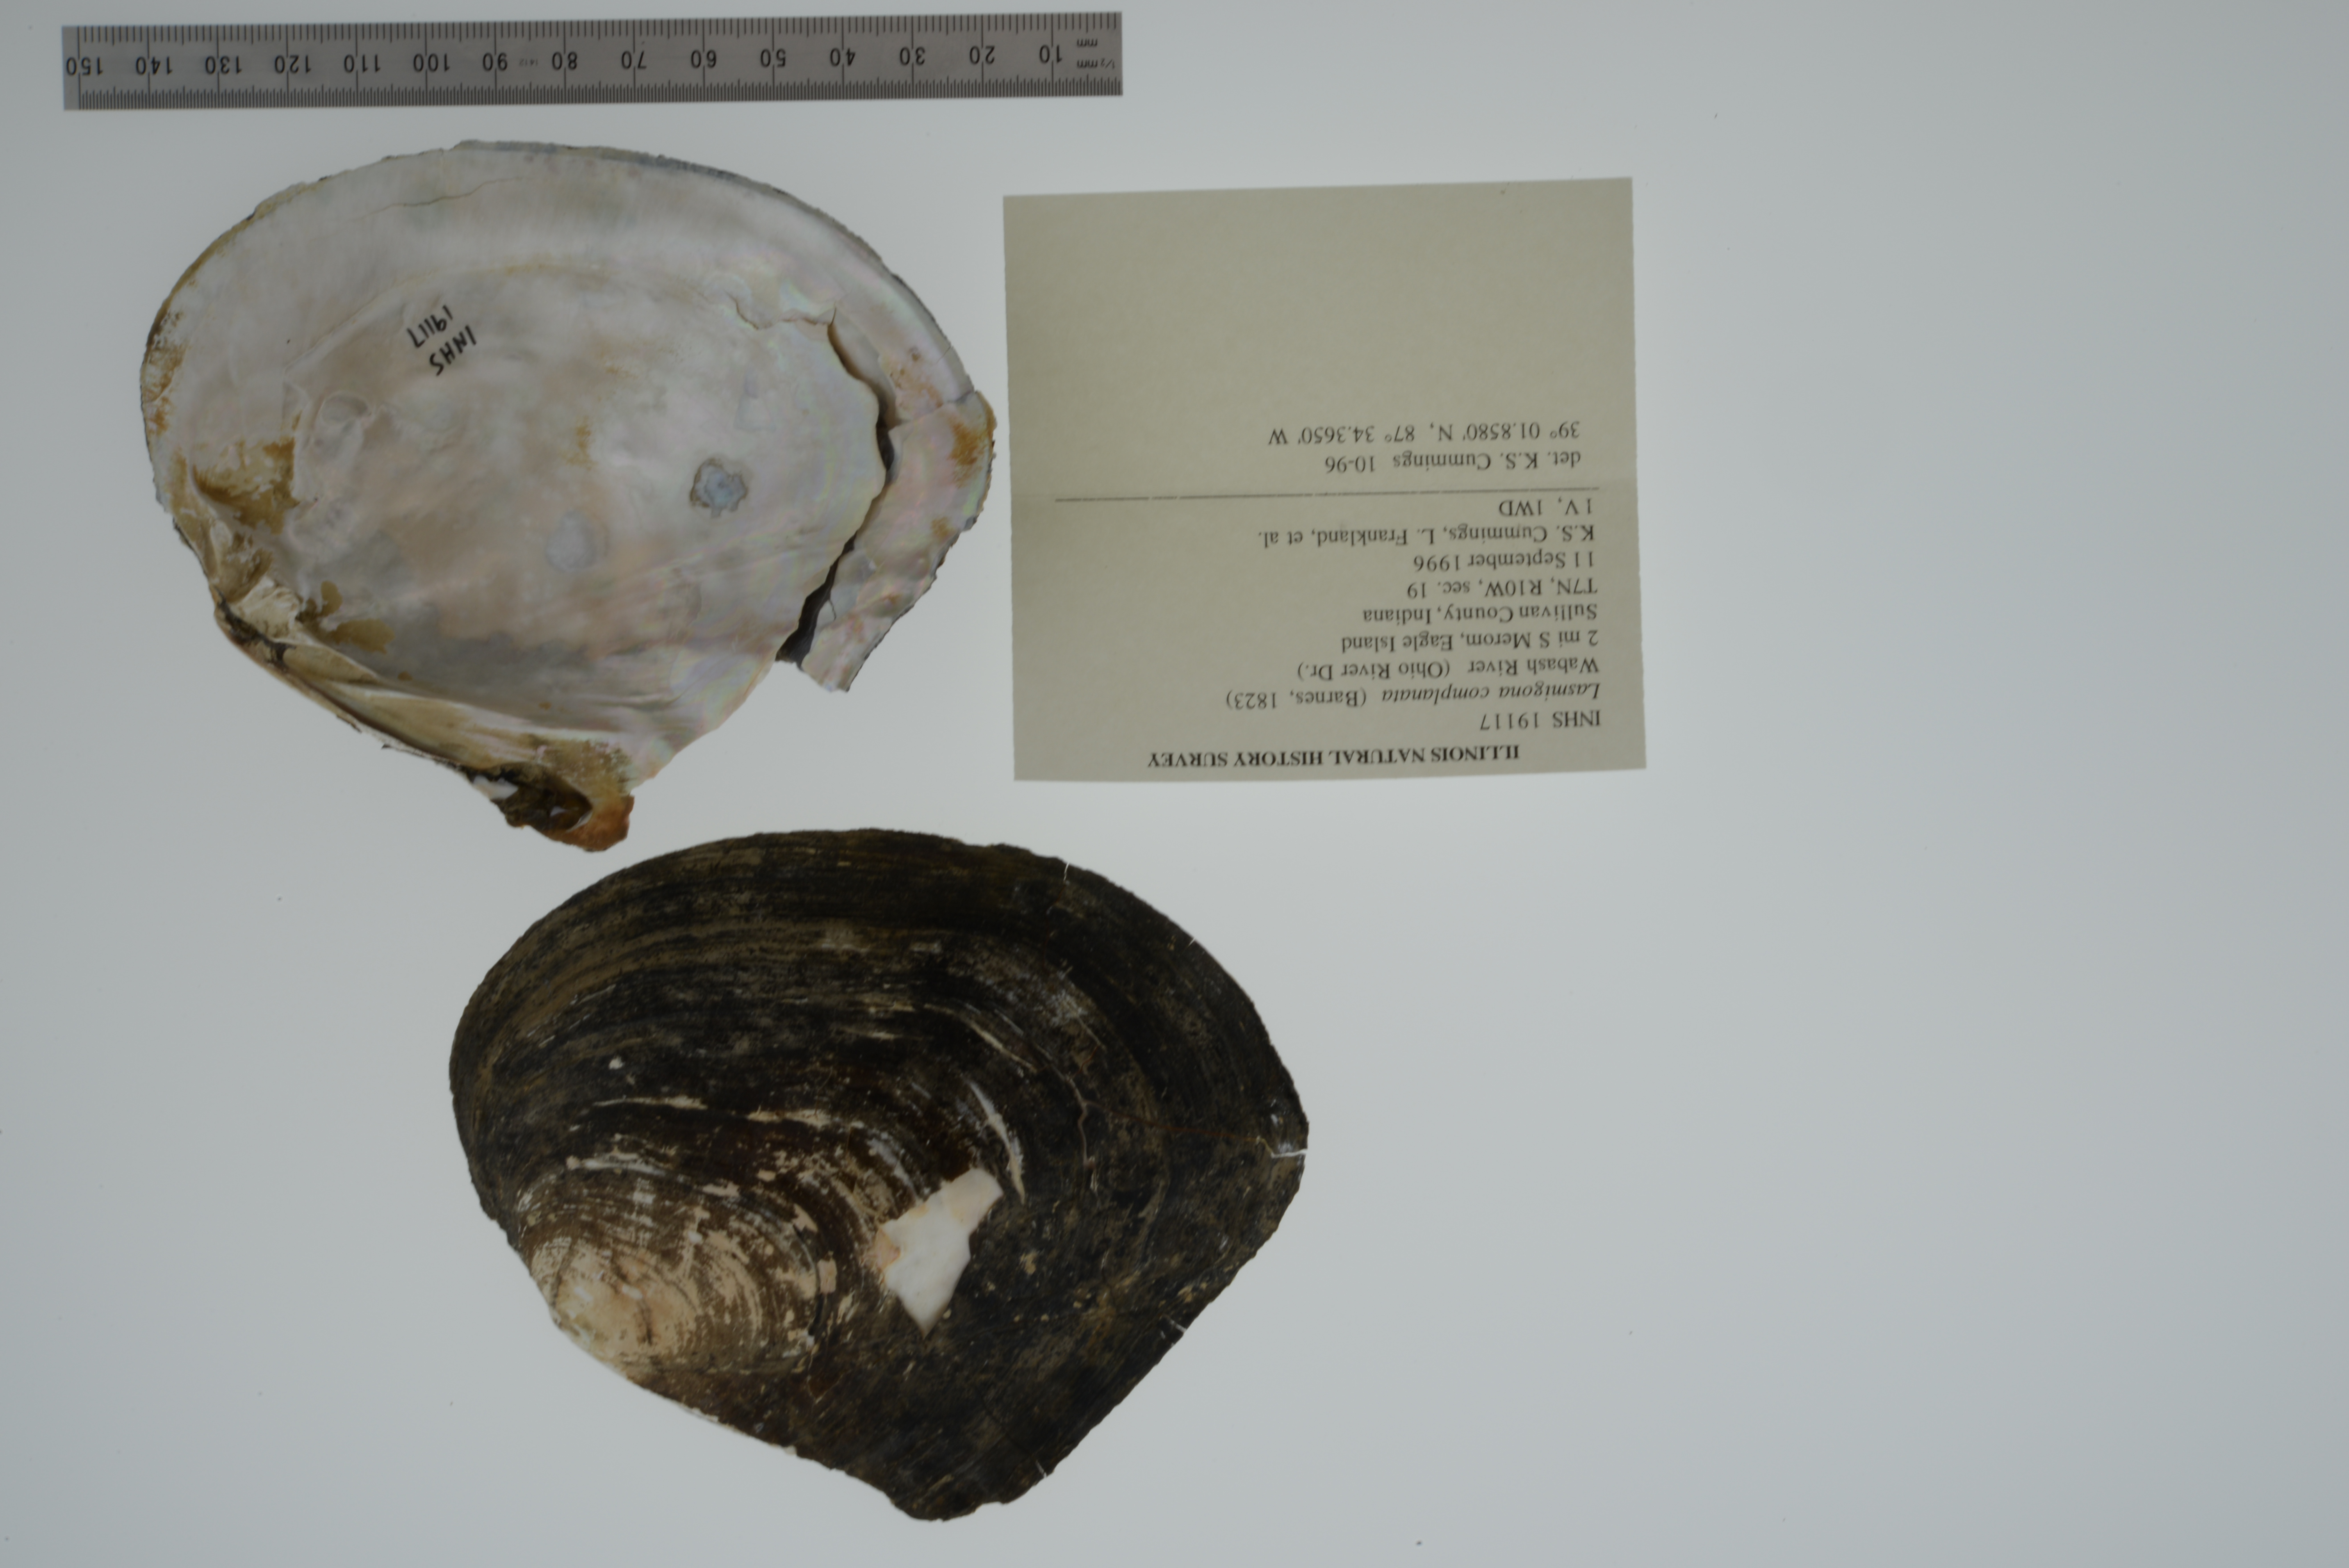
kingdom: Animalia
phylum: Mollusca
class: Bivalvia
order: Unionida
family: Unionidae
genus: Lasmigona
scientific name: Lasmigona complanata
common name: White heelsplitter
